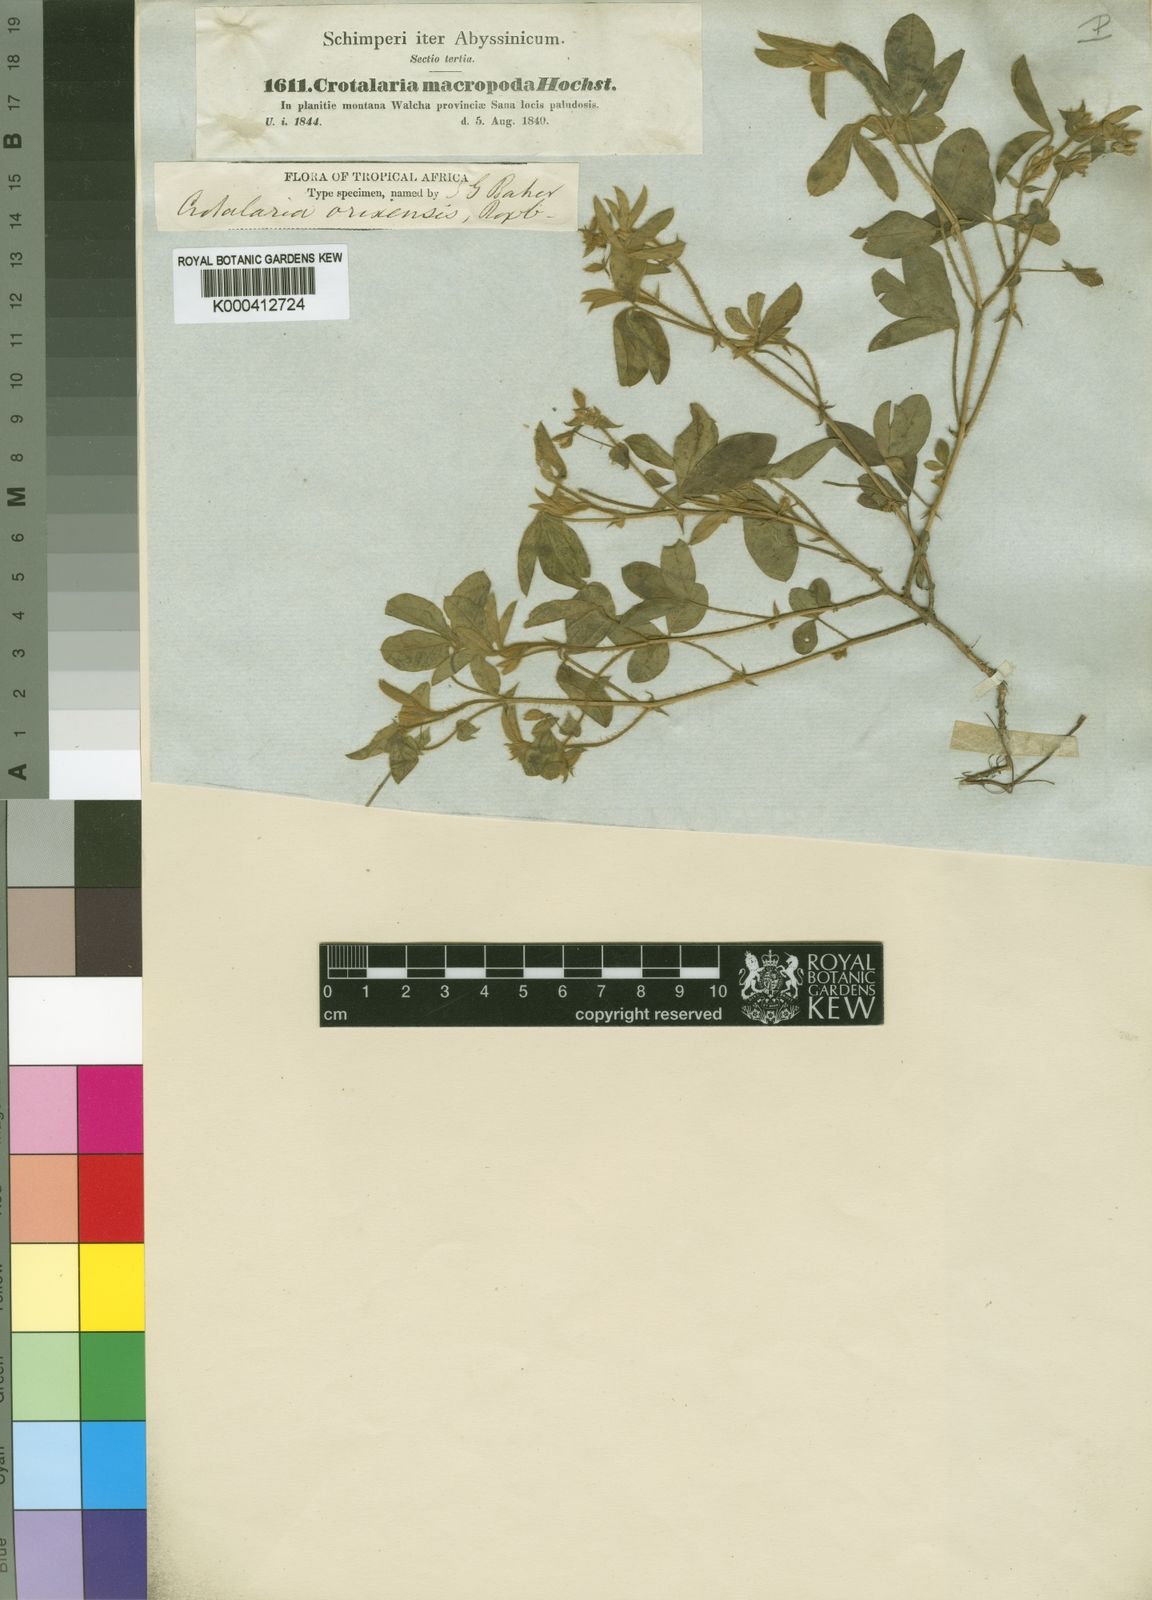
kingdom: Plantae
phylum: Tracheophyta
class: Magnoliopsida
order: Fabales
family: Fabaceae
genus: Crotalaria
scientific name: Crotalaria
